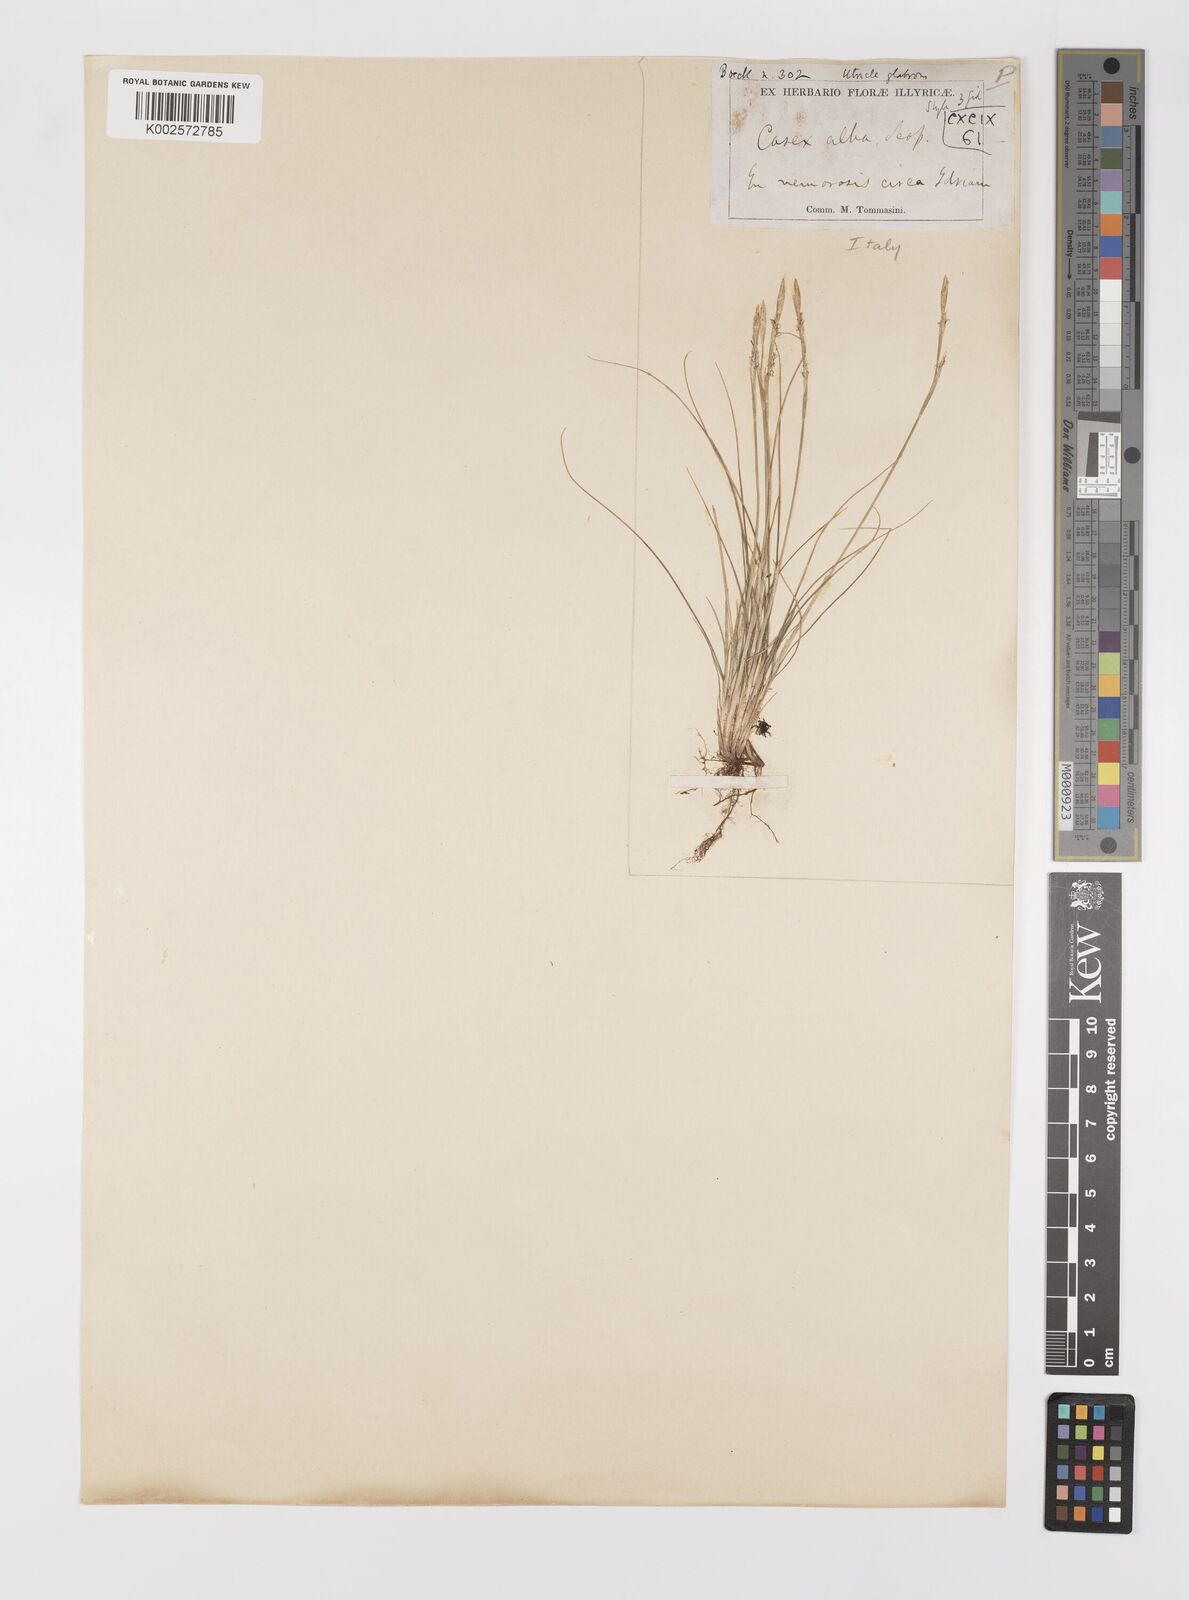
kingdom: Plantae
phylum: Tracheophyta
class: Liliopsida
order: Poales
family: Cyperaceae
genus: Carex
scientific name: Carex alba
